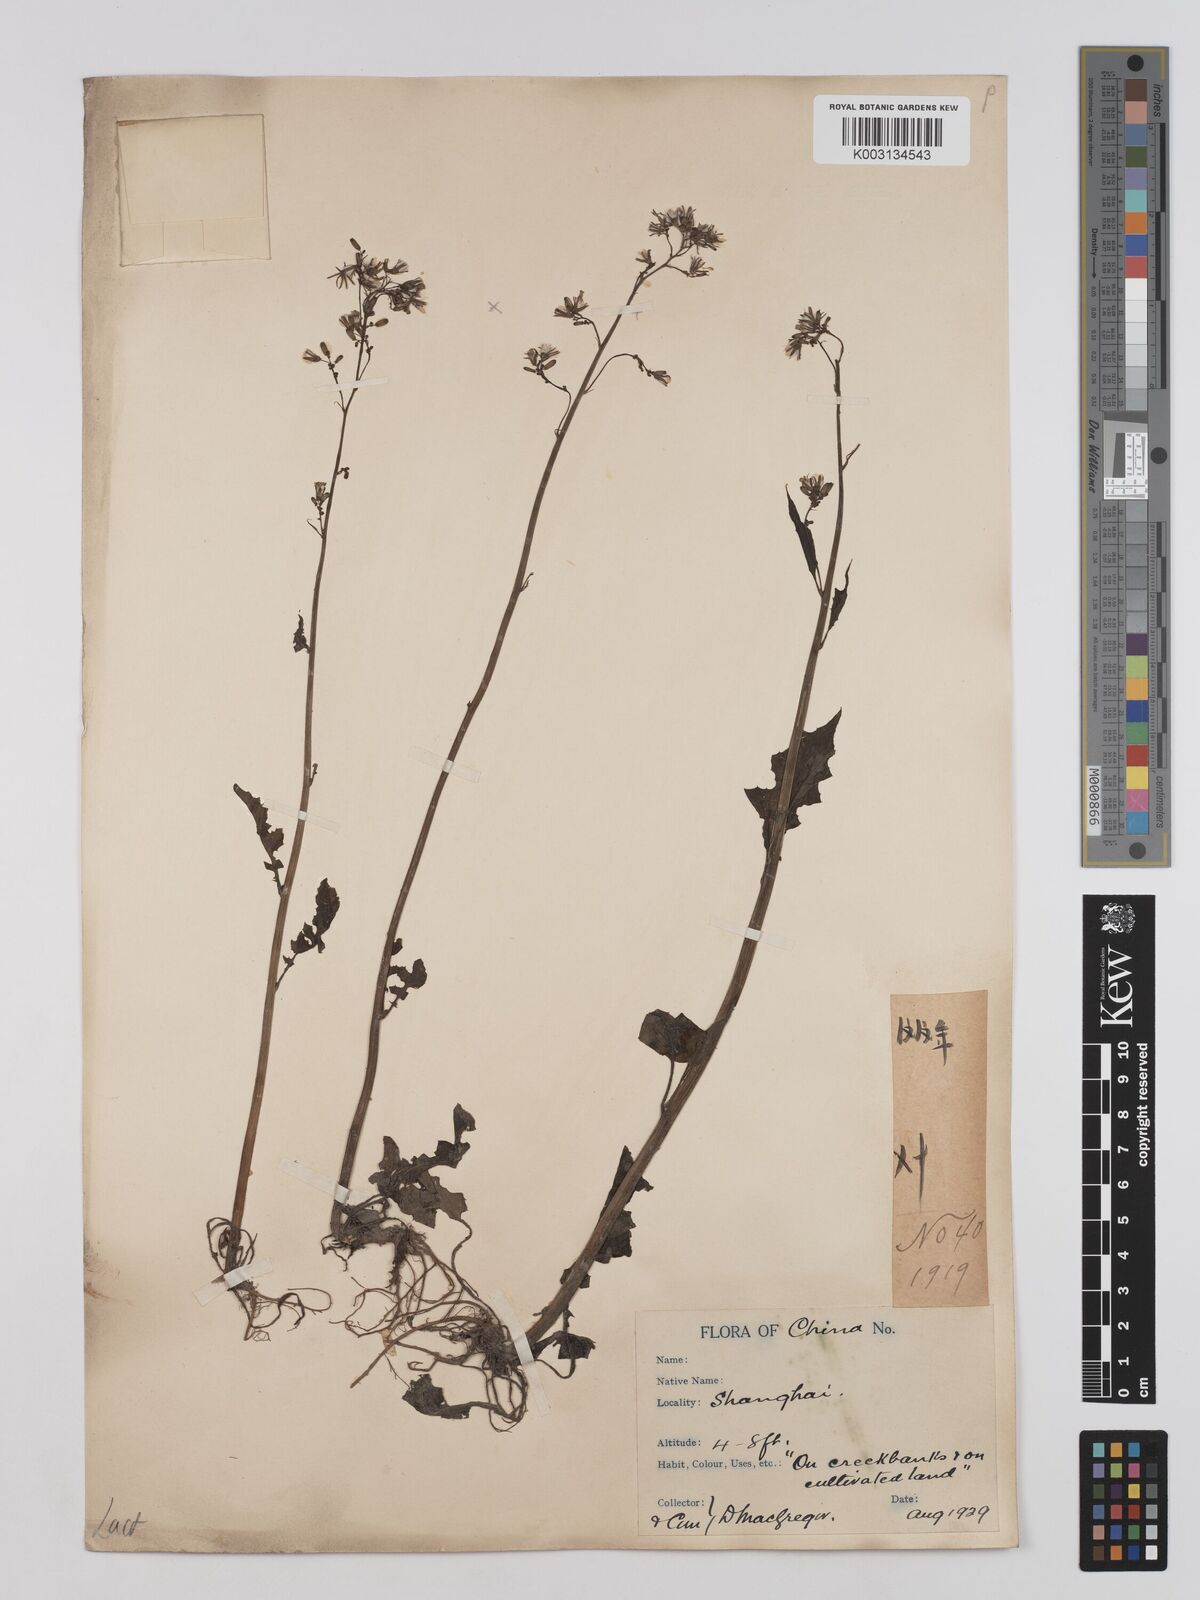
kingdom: Plantae
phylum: Tracheophyta
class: Magnoliopsida
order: Asterales
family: Asteraceae
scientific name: Asteraceae
